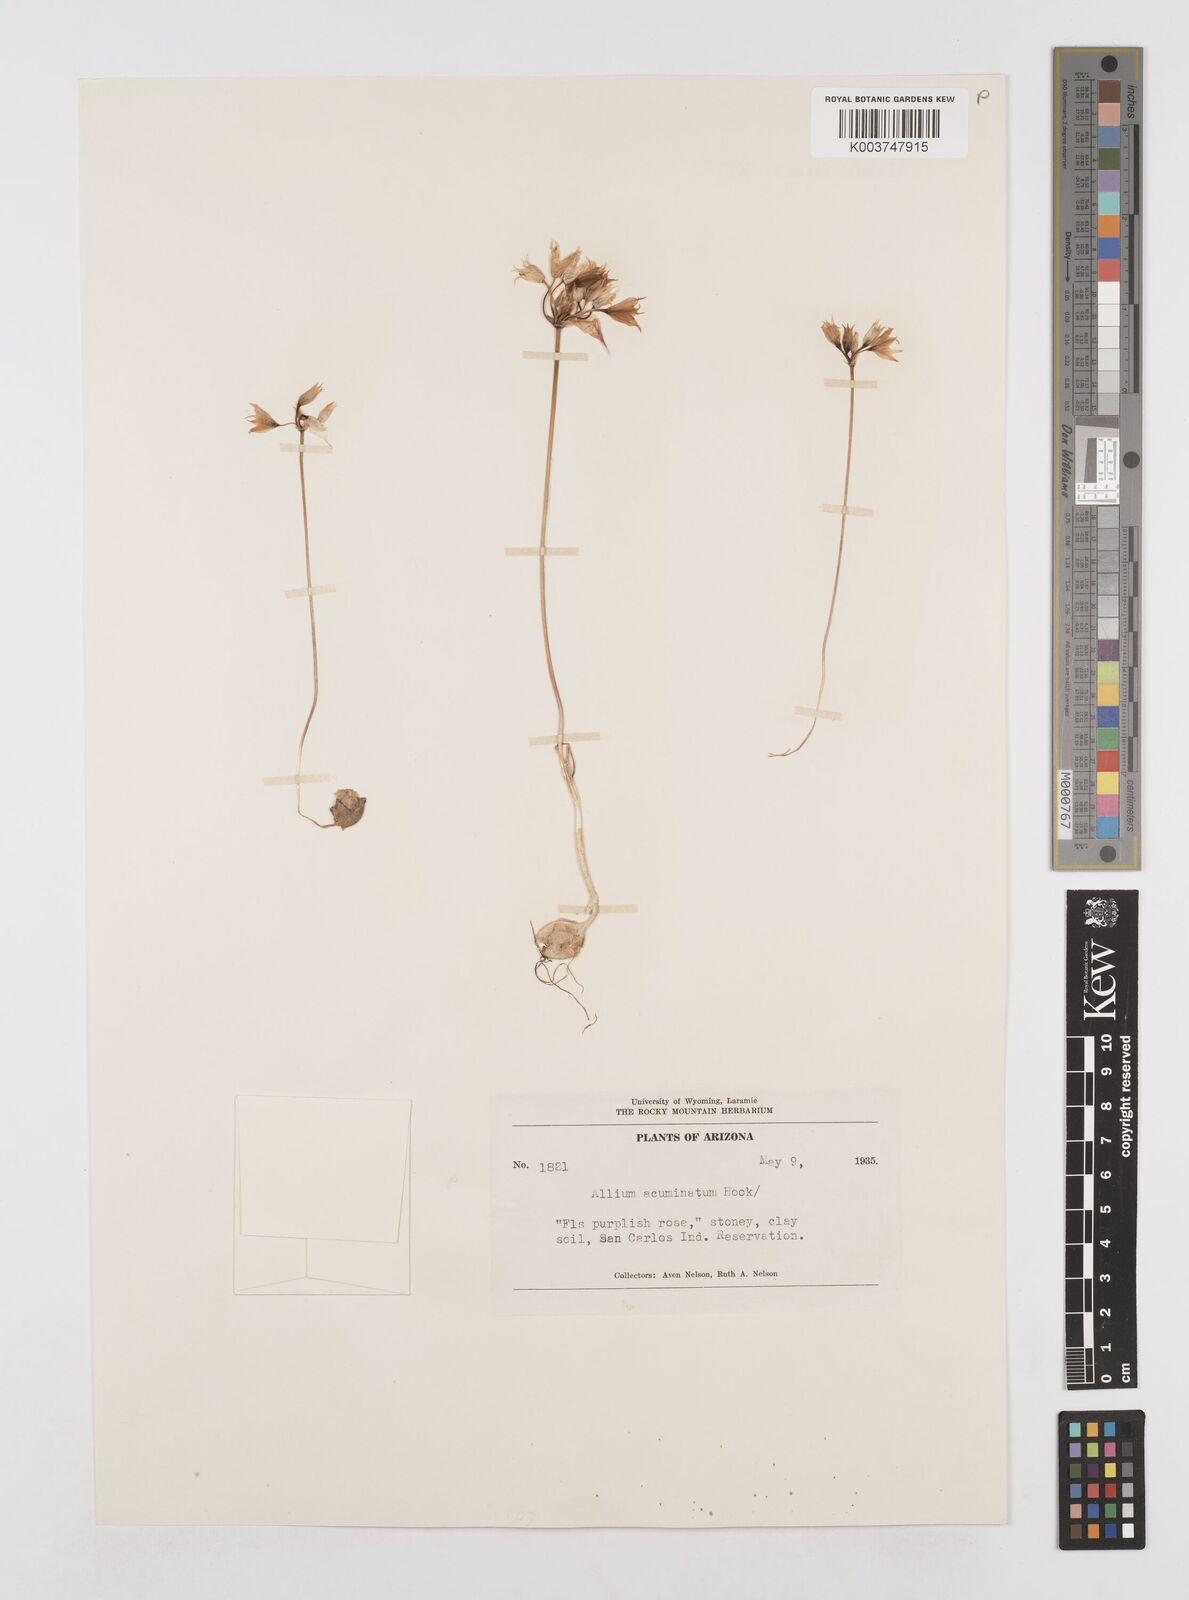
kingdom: Plantae
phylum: Tracheophyta
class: Liliopsida
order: Asparagales
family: Amaryllidaceae
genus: Allium
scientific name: Allium acuminatum
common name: Hooker's onion
